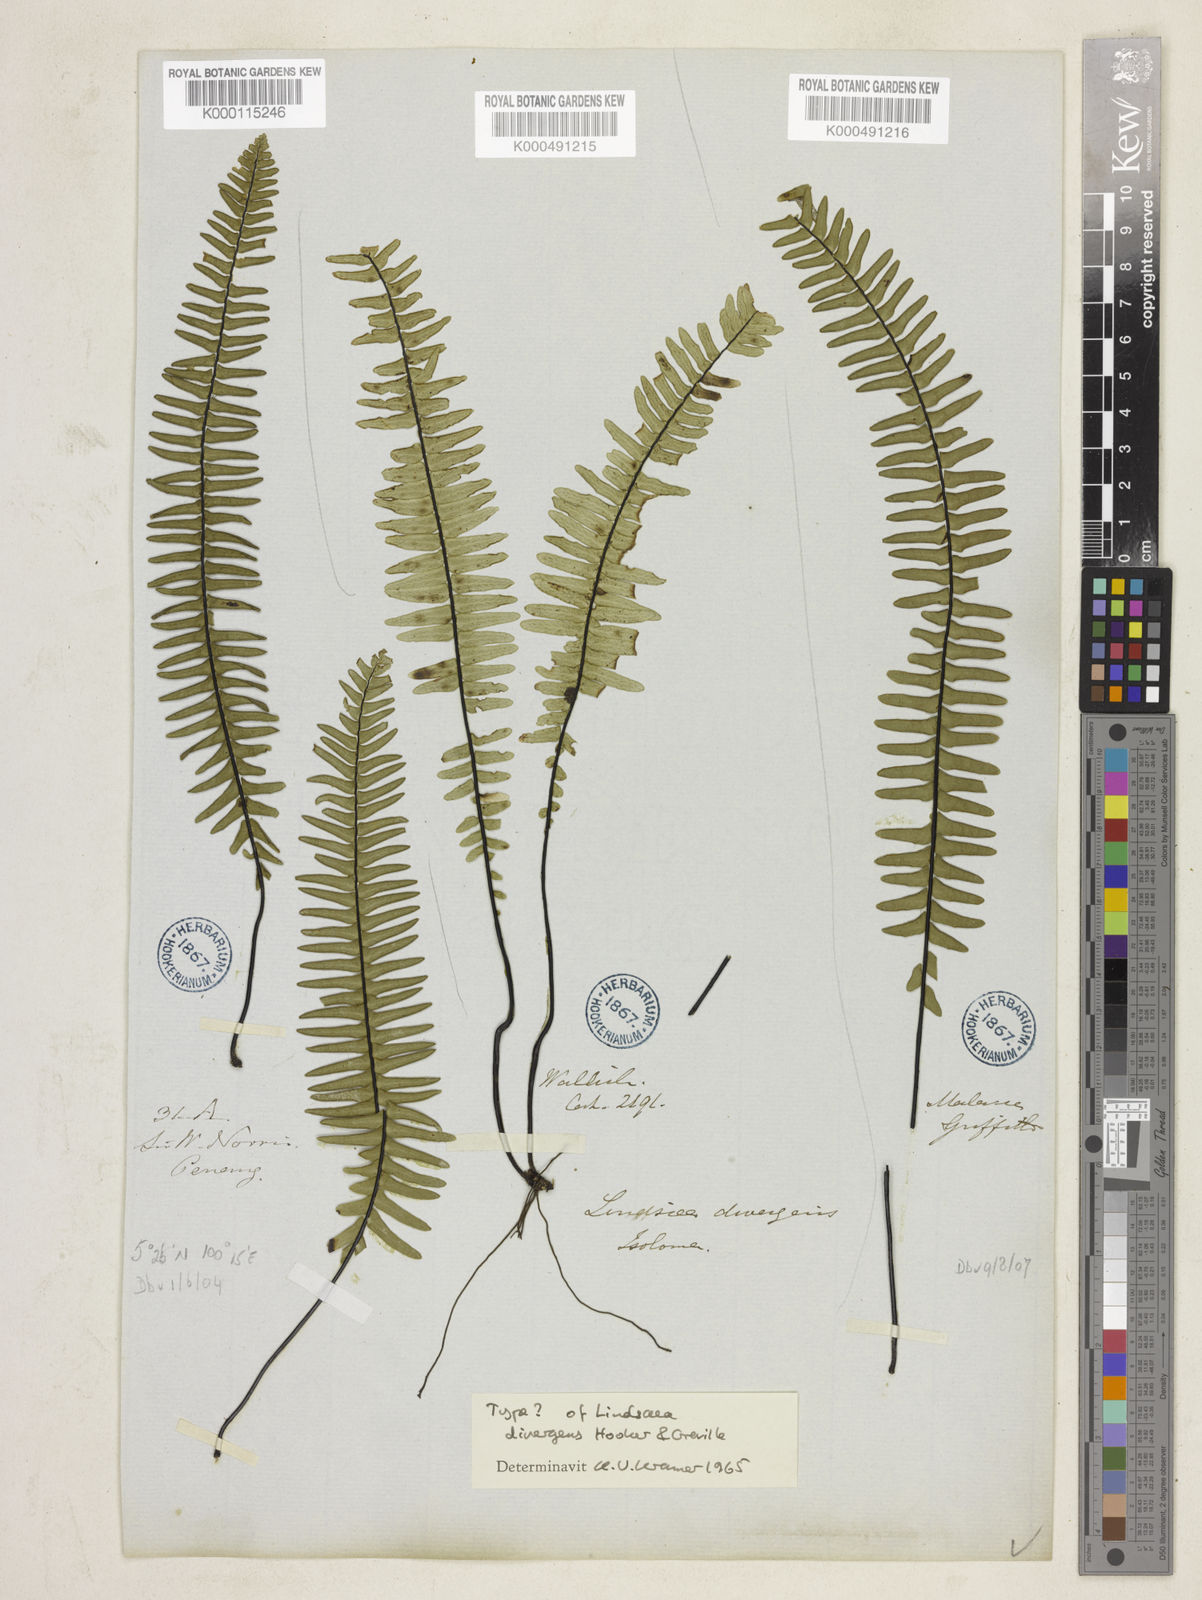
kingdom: Plantae
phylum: Tracheophyta
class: Polypodiopsida
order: Polypodiales
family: Lindsaeaceae
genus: Lindsaea
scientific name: Lindsaea divergens
